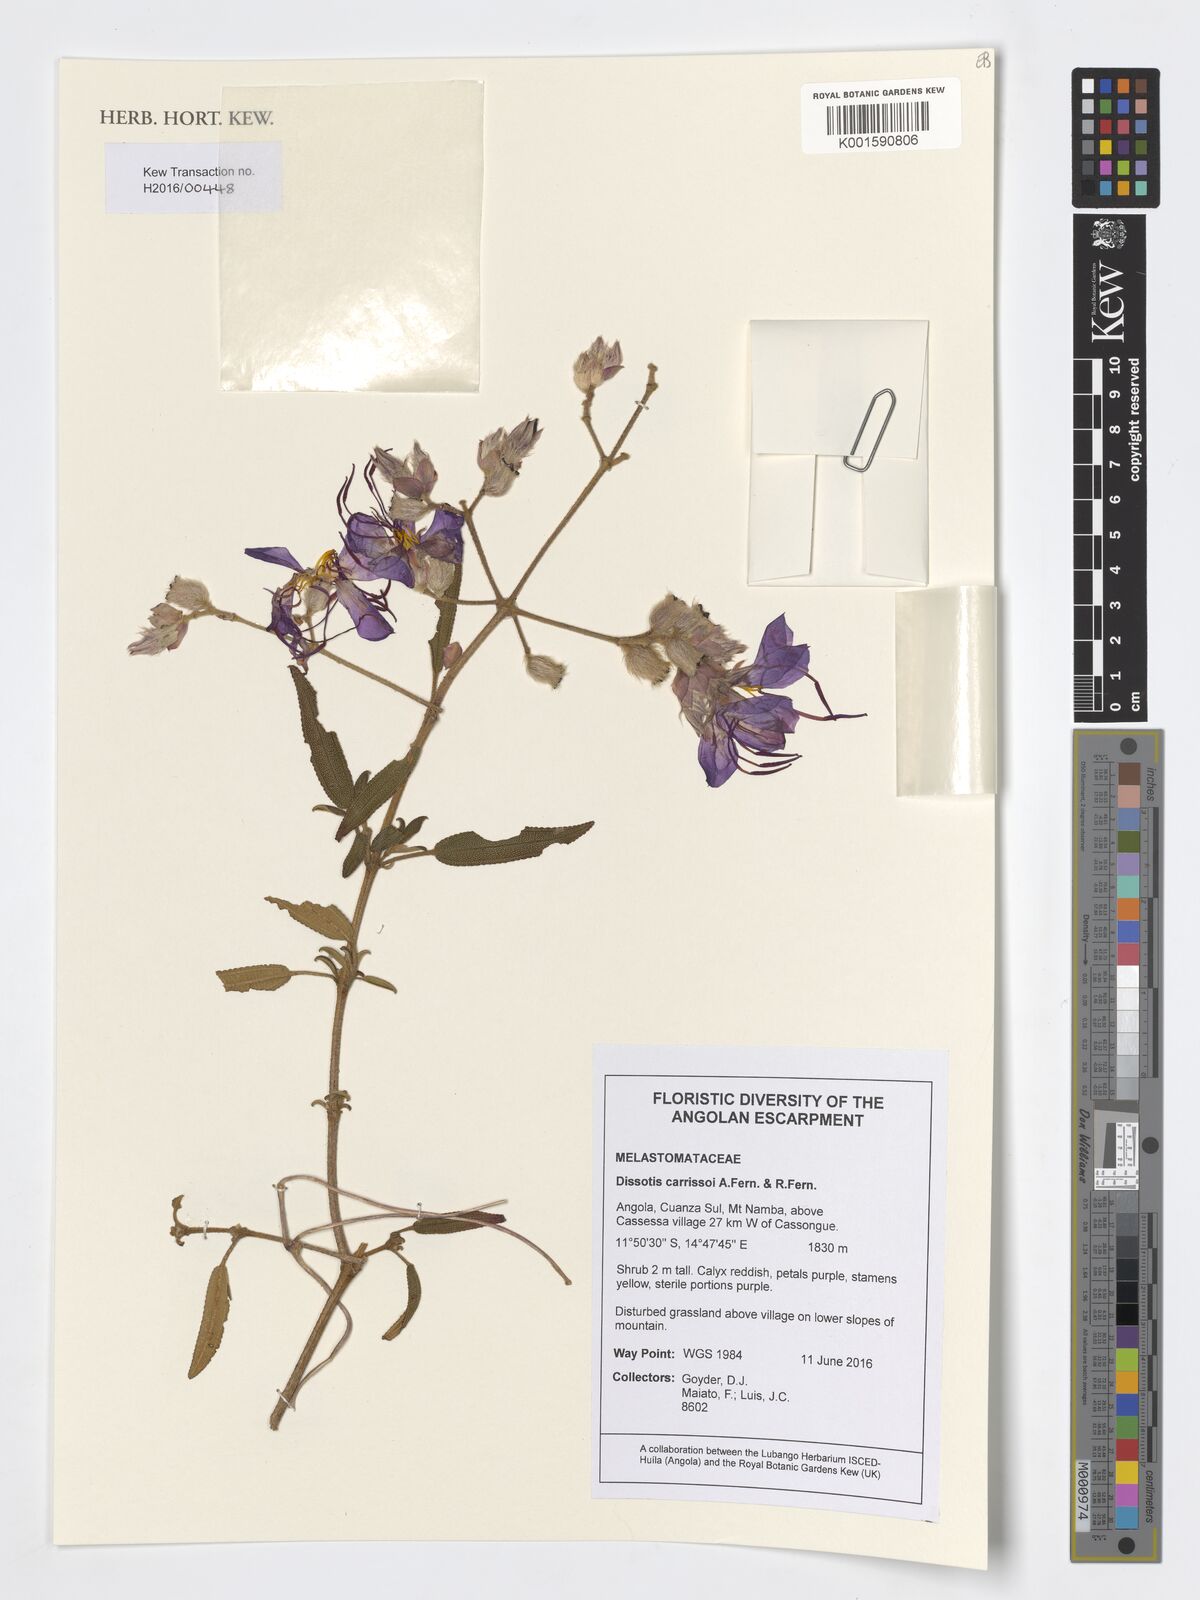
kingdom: Plantae
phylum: Tracheophyta
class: Magnoliopsida
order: Myrtales
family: Melastomataceae
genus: Rosettea
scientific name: Rosettea carrissoi
